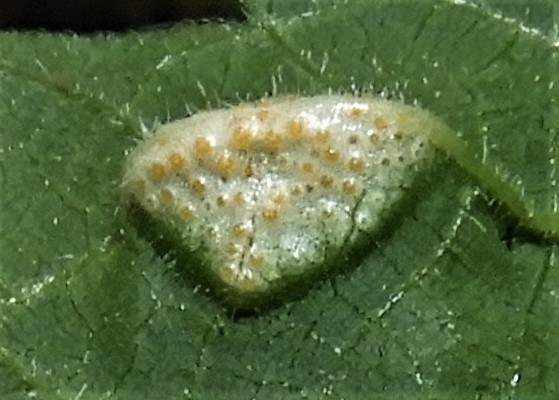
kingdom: Fungi
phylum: Basidiomycota
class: Pucciniomycetes
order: Pucciniales
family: Pucciniaceae
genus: Puccinia
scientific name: Puccinia urticata
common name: nældegalle-tvecellerust
